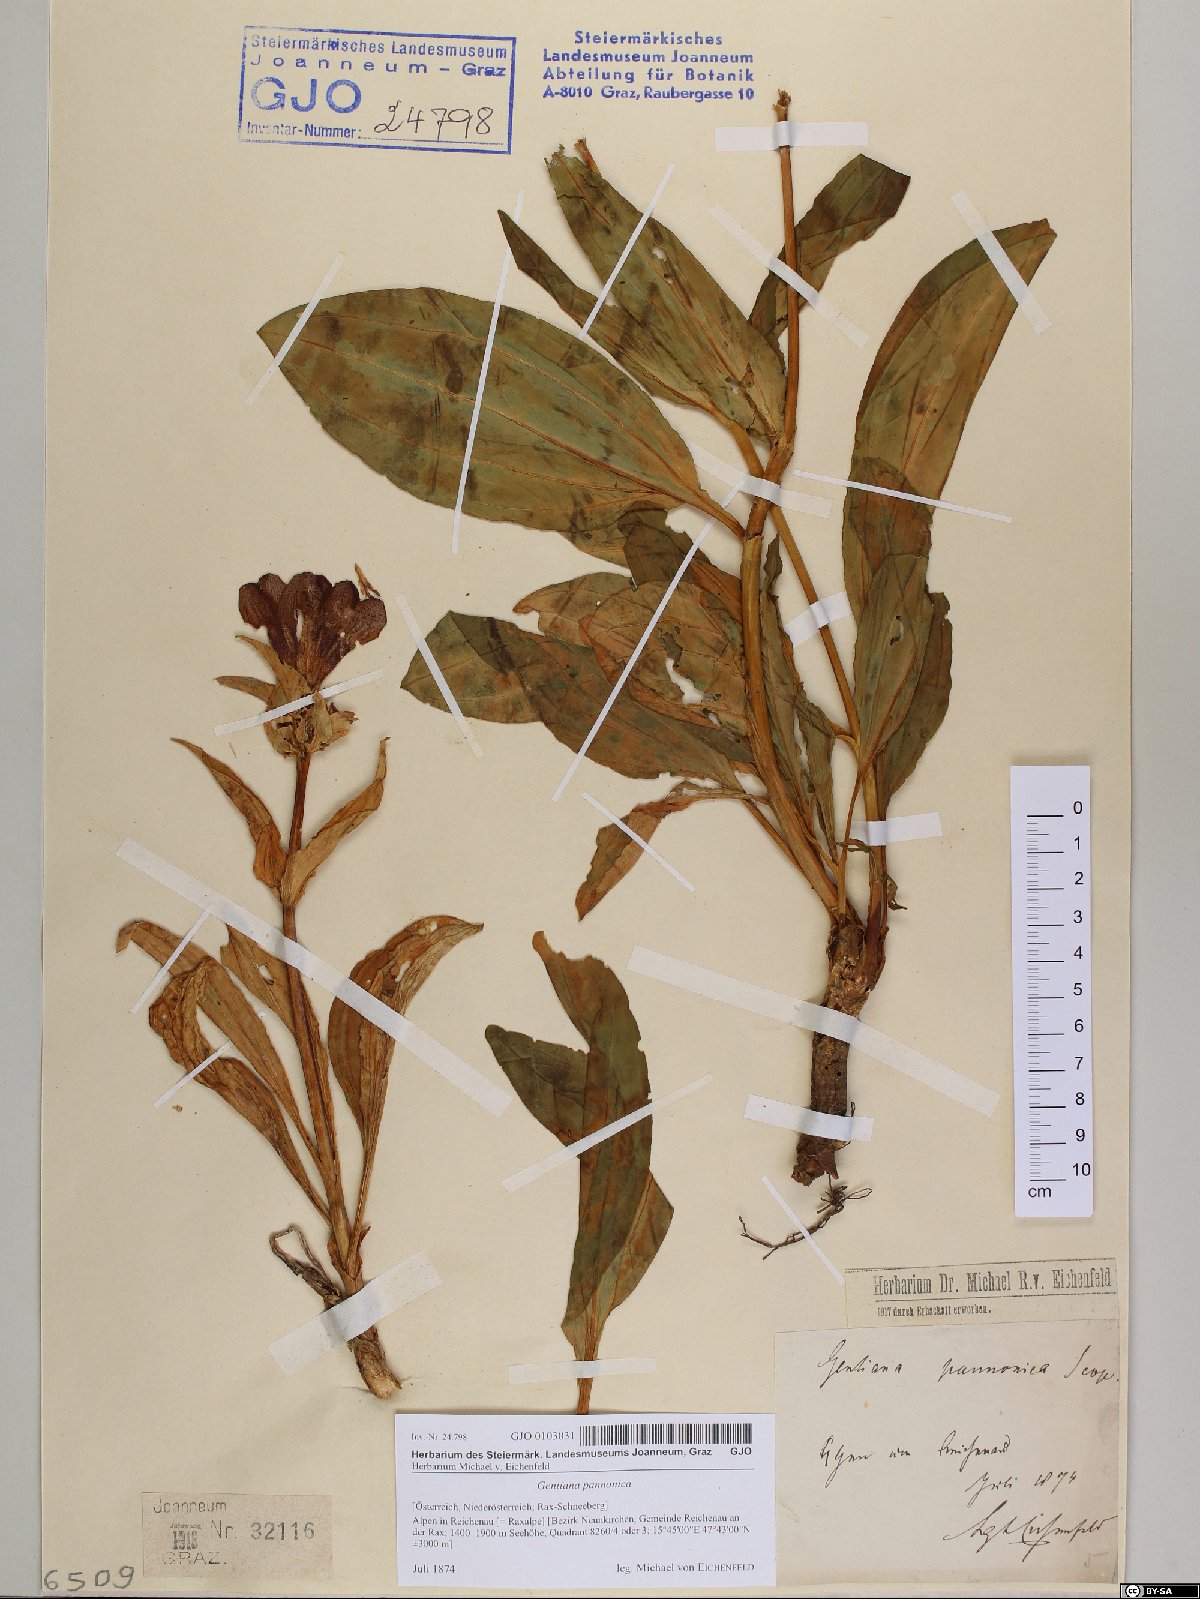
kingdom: Plantae
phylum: Tracheophyta
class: Magnoliopsida
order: Gentianales
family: Gentianaceae
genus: Gentiana
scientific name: Gentiana pannonica
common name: Hungarian gentian
